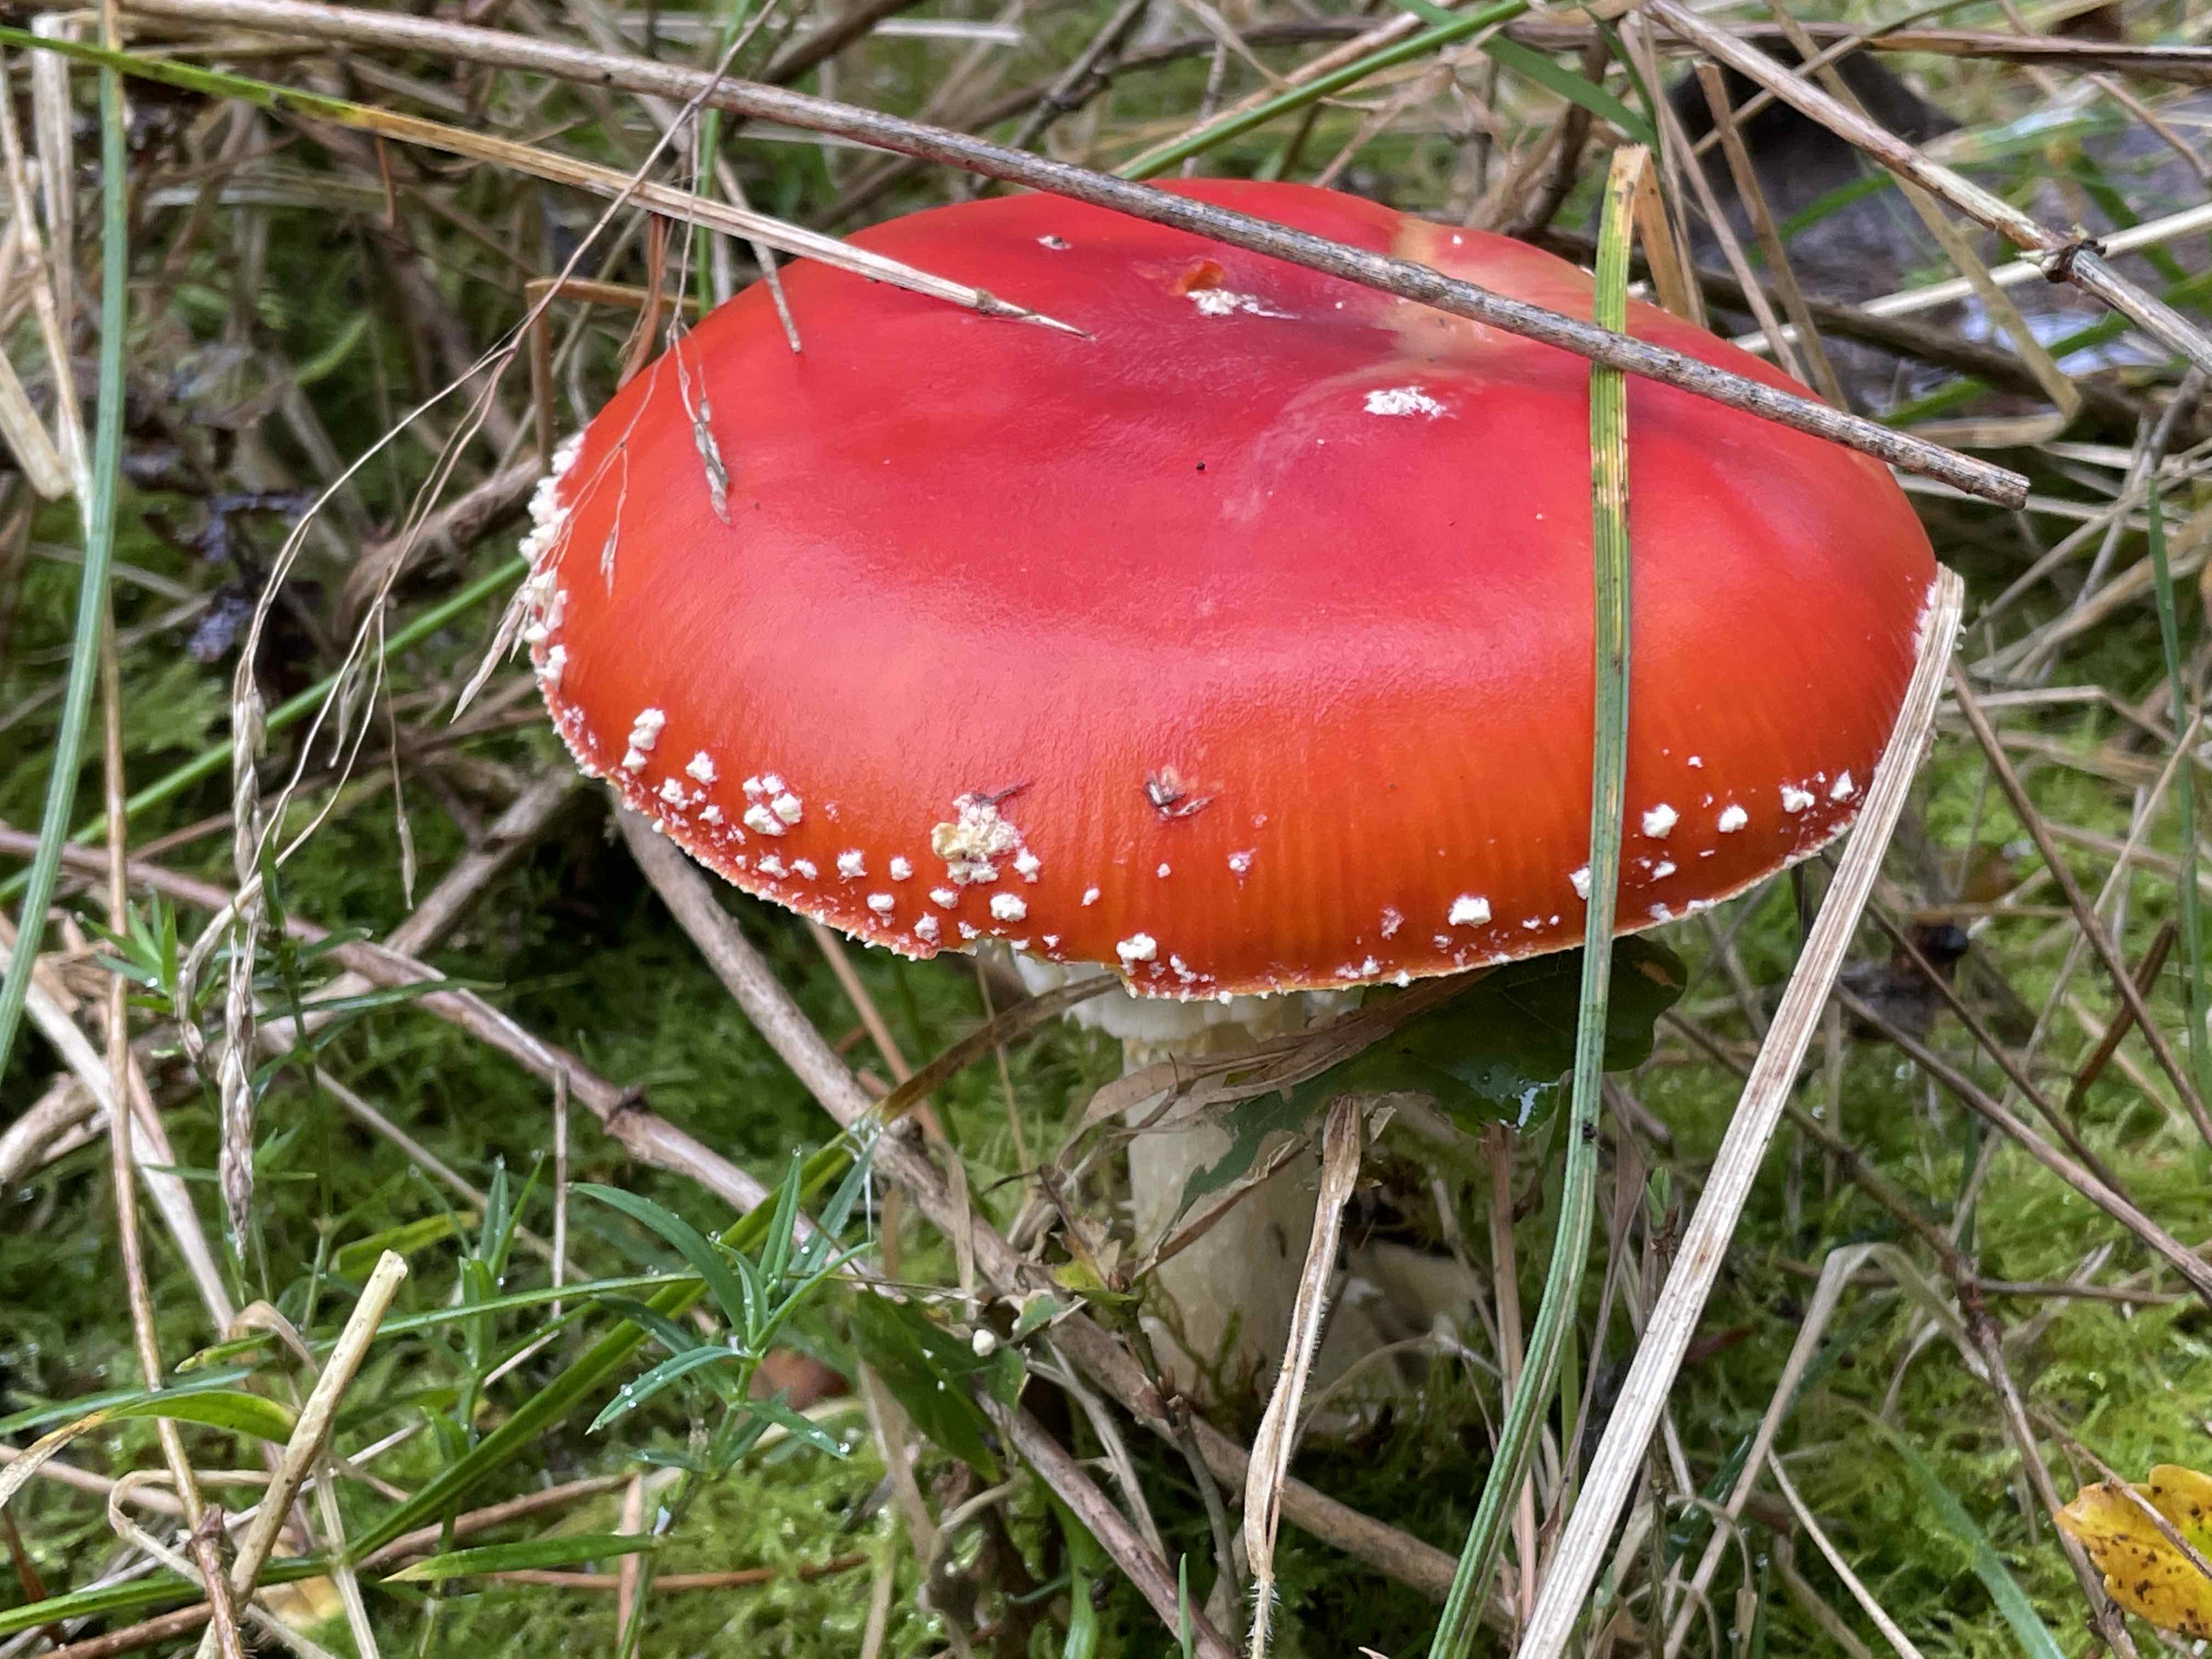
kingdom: Fungi
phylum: Basidiomycota
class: Agaricomycetes
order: Agaricales
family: Amanitaceae
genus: Amanita
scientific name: Amanita muscaria
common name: rød fluesvamp
